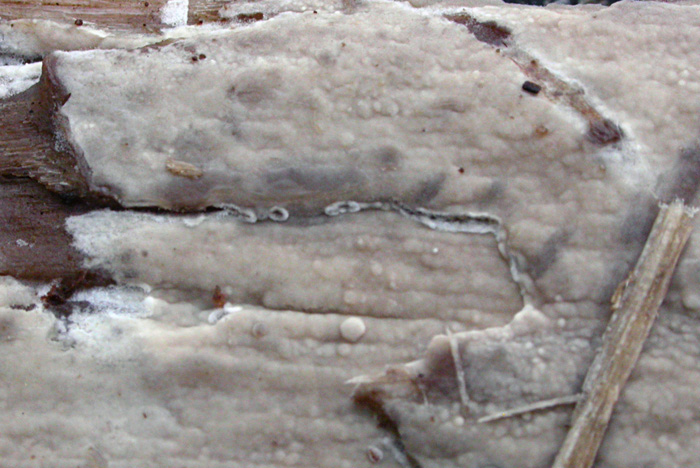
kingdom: Fungi
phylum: Basidiomycota
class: Agaricomycetes
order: Polyporales
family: Hyphodermataceae
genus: Hyphoderma
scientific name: Hyphoderma roseocremeum
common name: lillaplettet kalkskind
